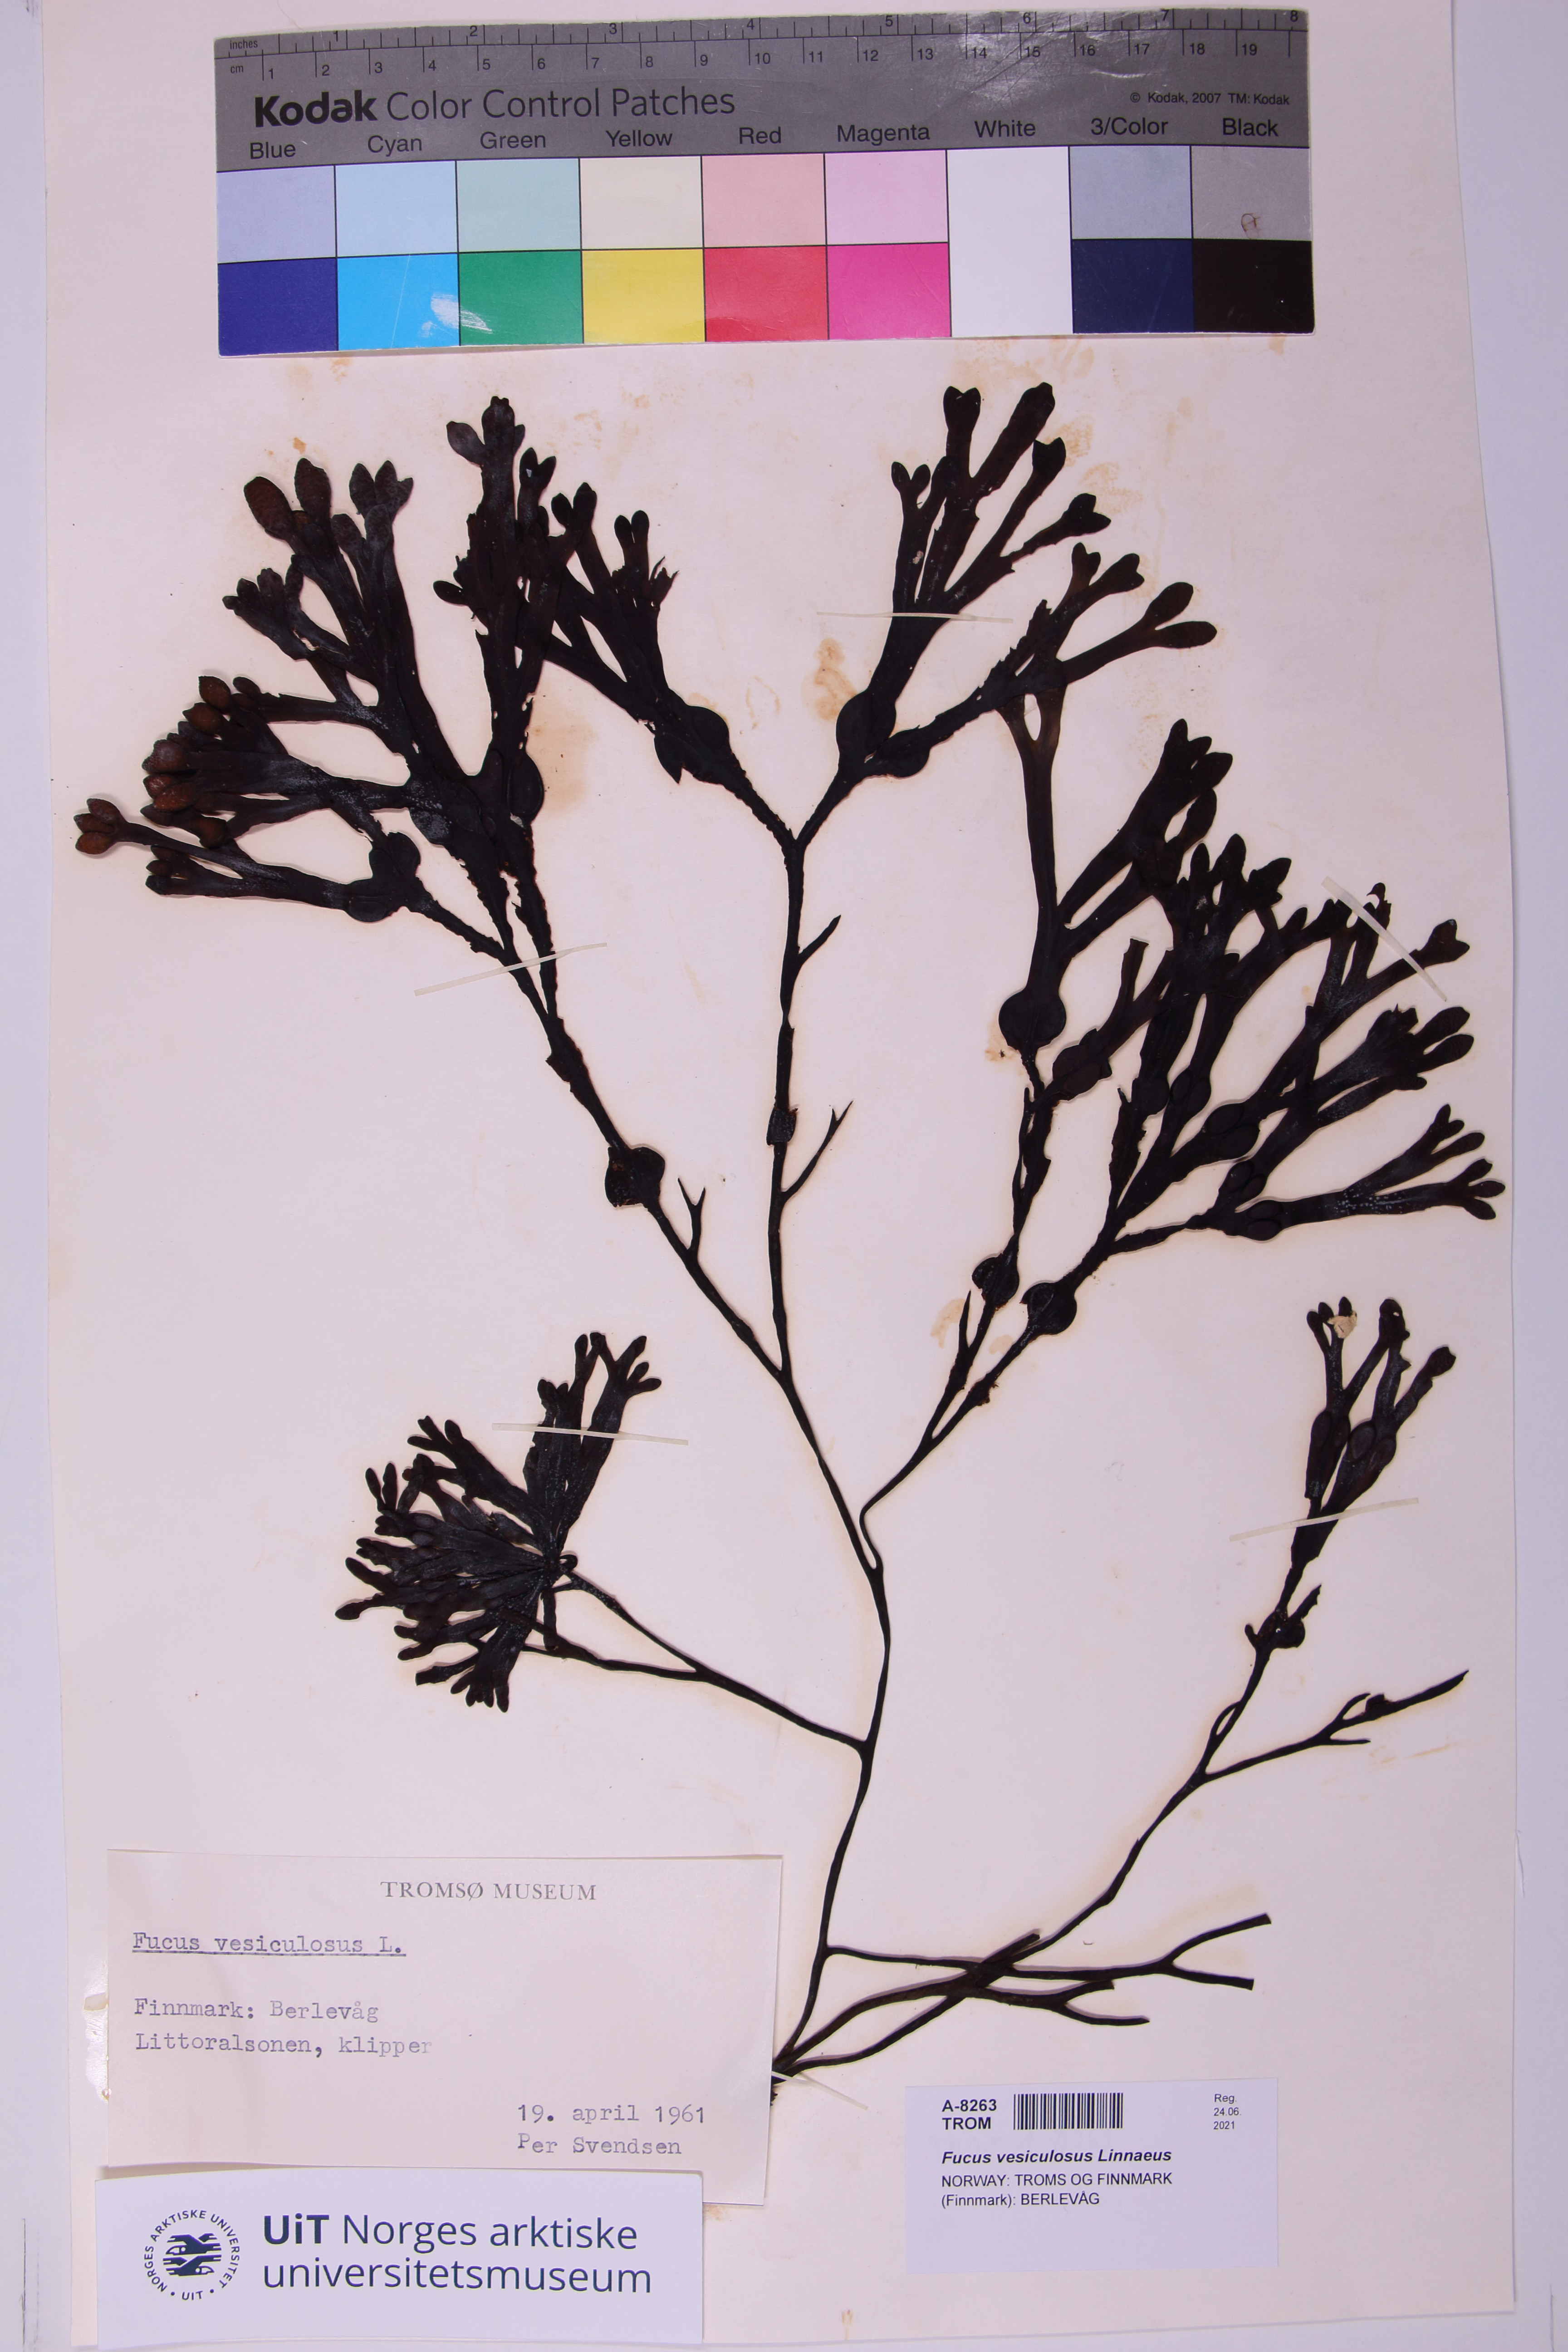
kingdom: Chromista
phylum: Ochrophyta
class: Phaeophyceae
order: Fucales
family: Fucaceae
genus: Fucus
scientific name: Fucus vesiculosus
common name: Bladder wrack
